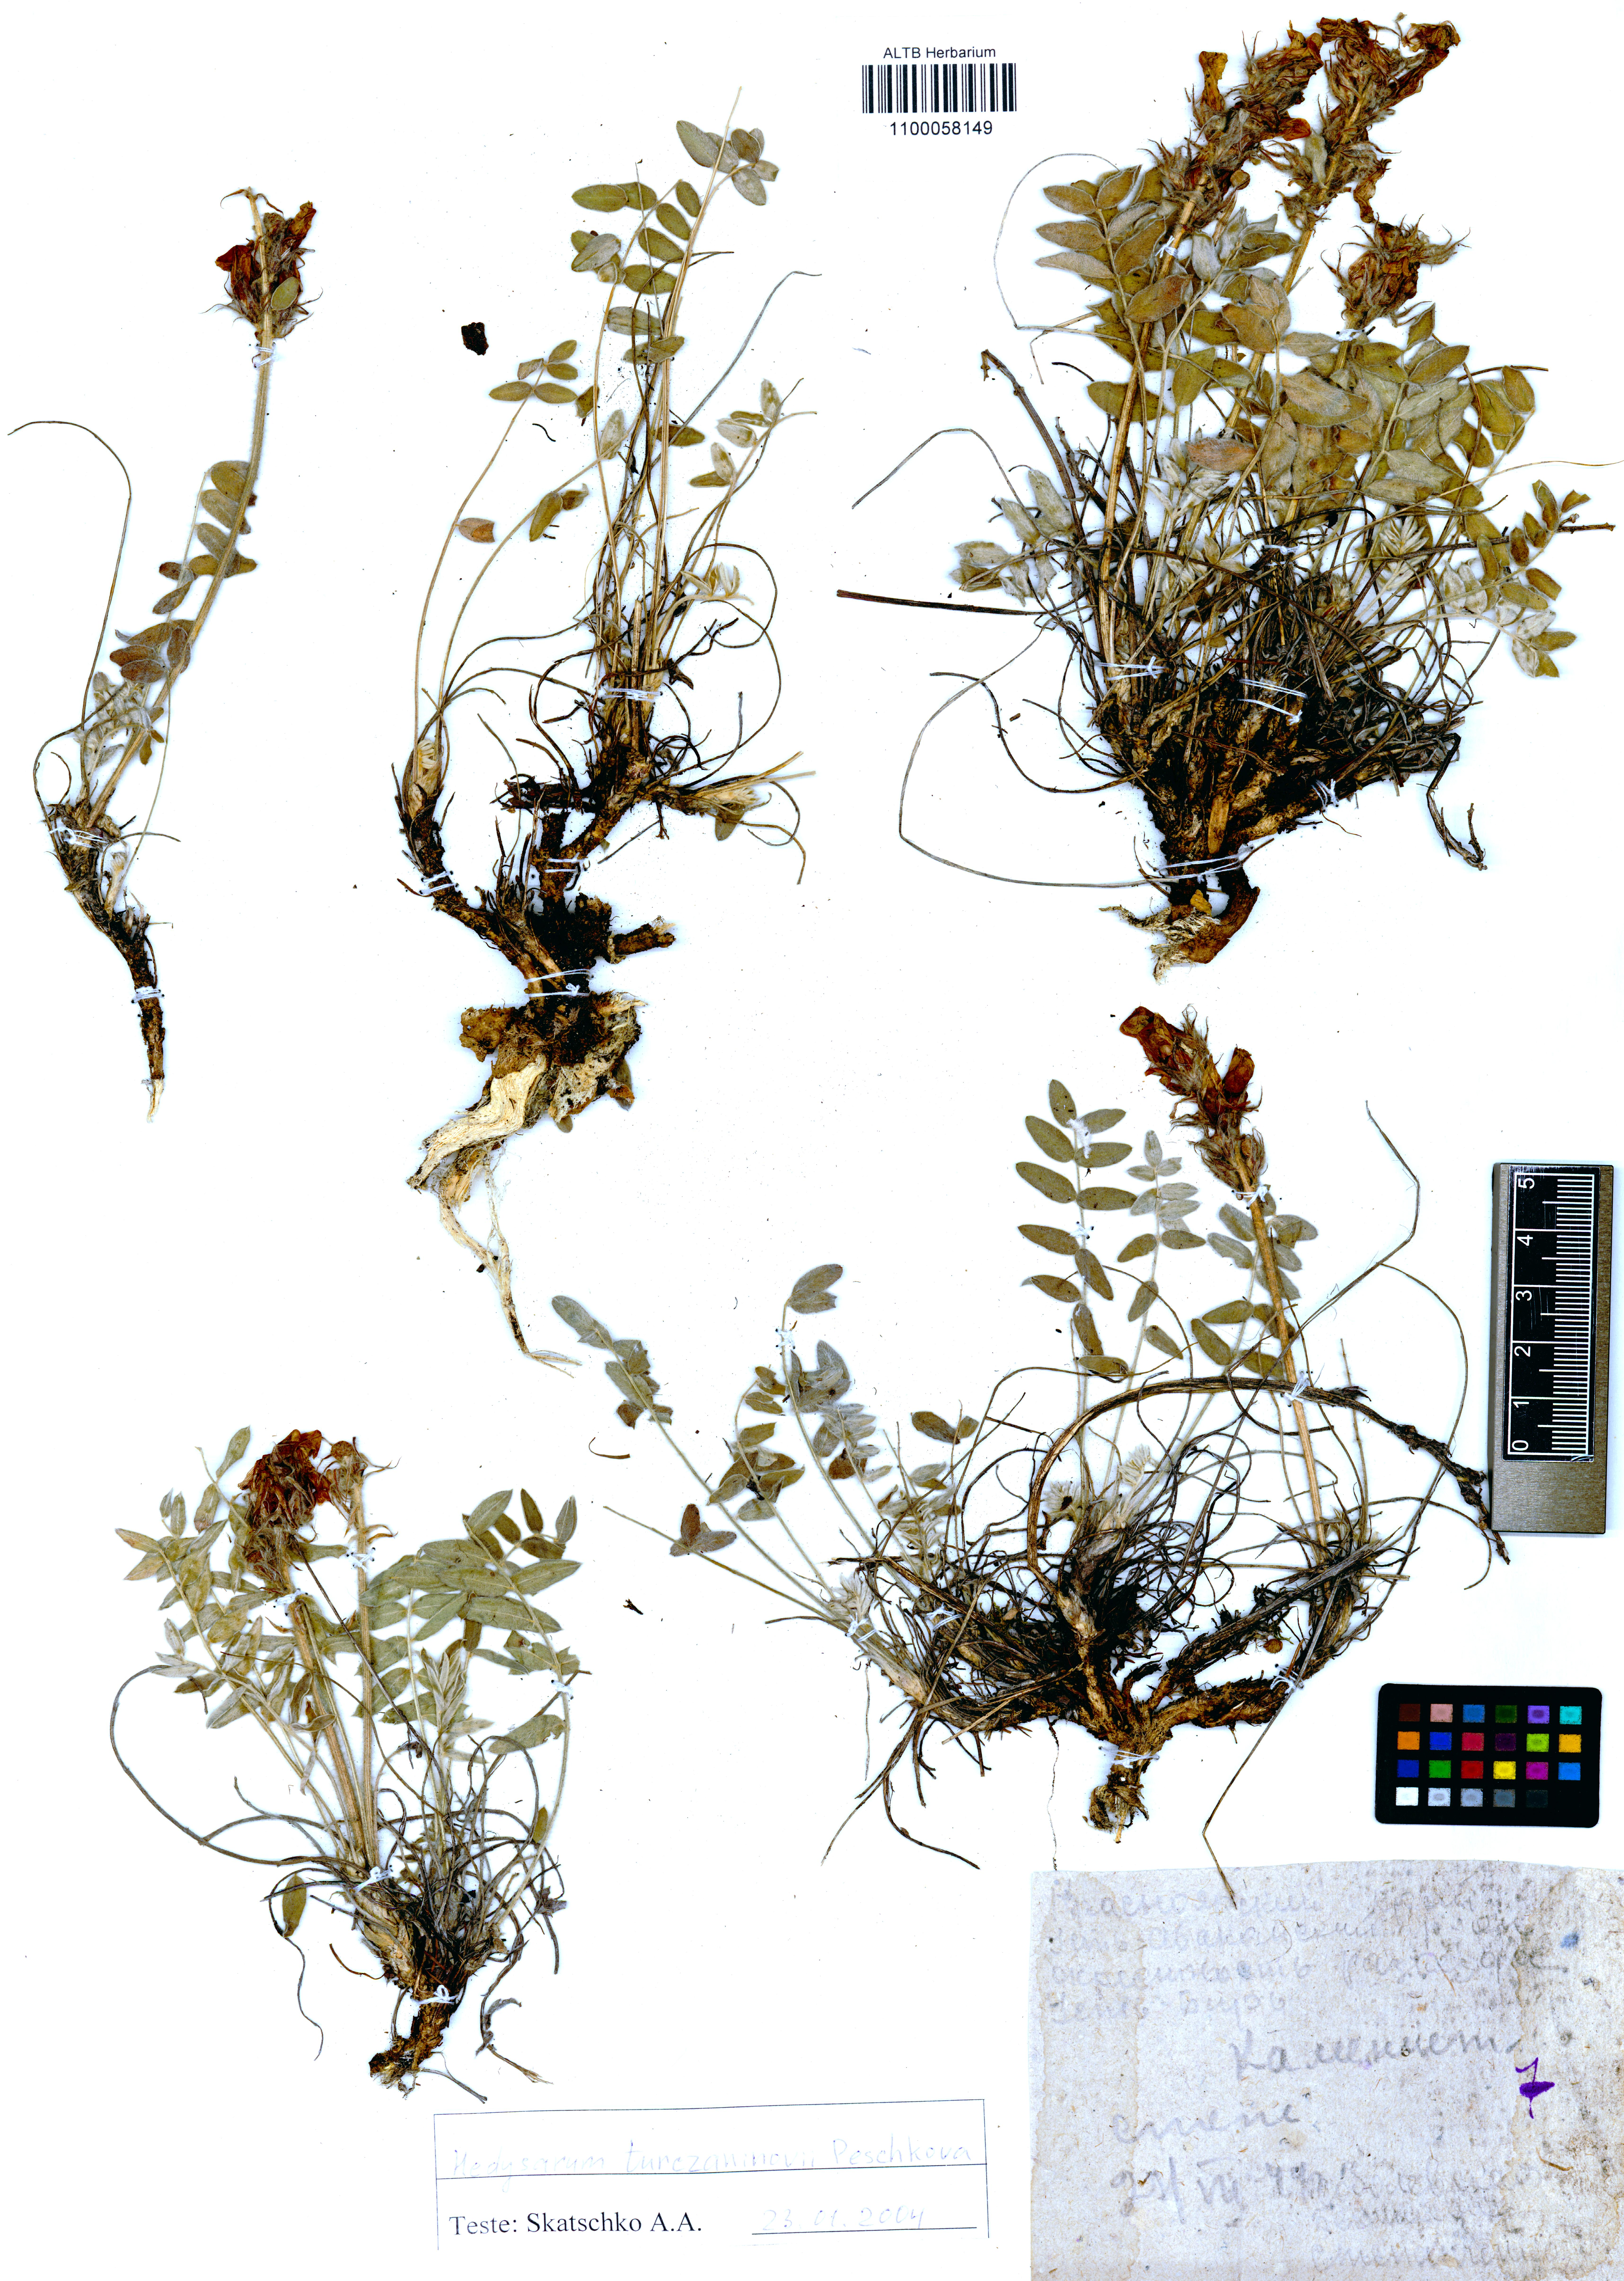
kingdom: Plantae
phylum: Tracheophyta
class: Magnoliopsida
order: Fabales
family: Fabaceae
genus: Hedysarum
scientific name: Hedysarum turczaninovii
